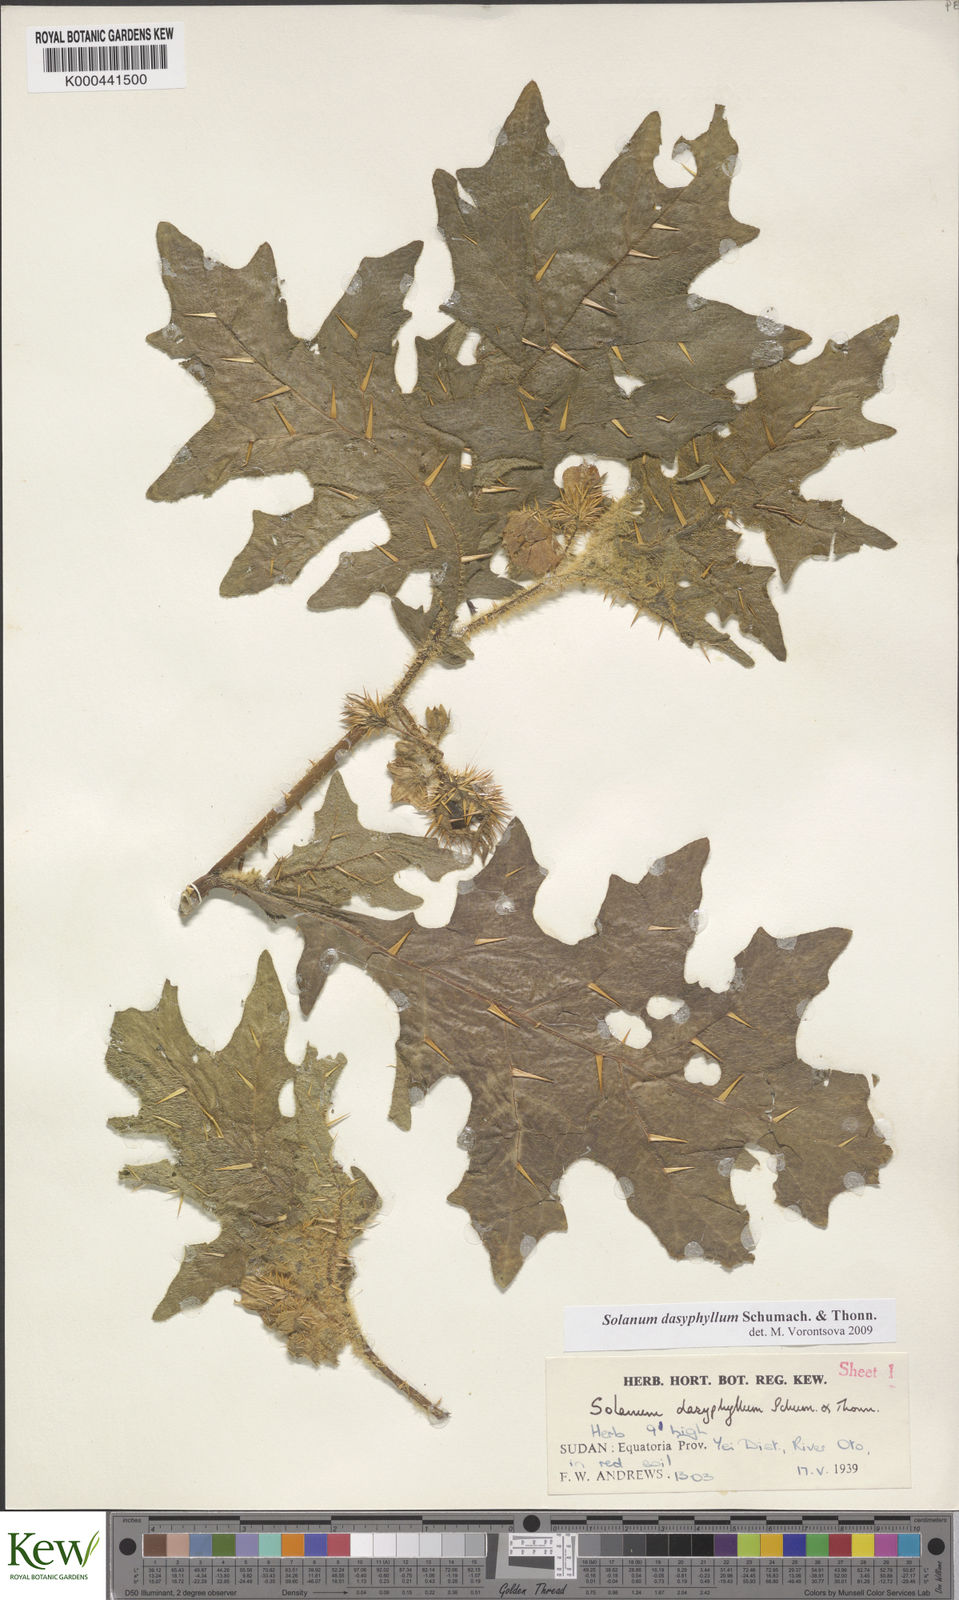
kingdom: Plantae
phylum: Tracheophyta
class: Magnoliopsida
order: Solanales
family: Solanaceae
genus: Solanum
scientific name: Solanum dasyphyllum
